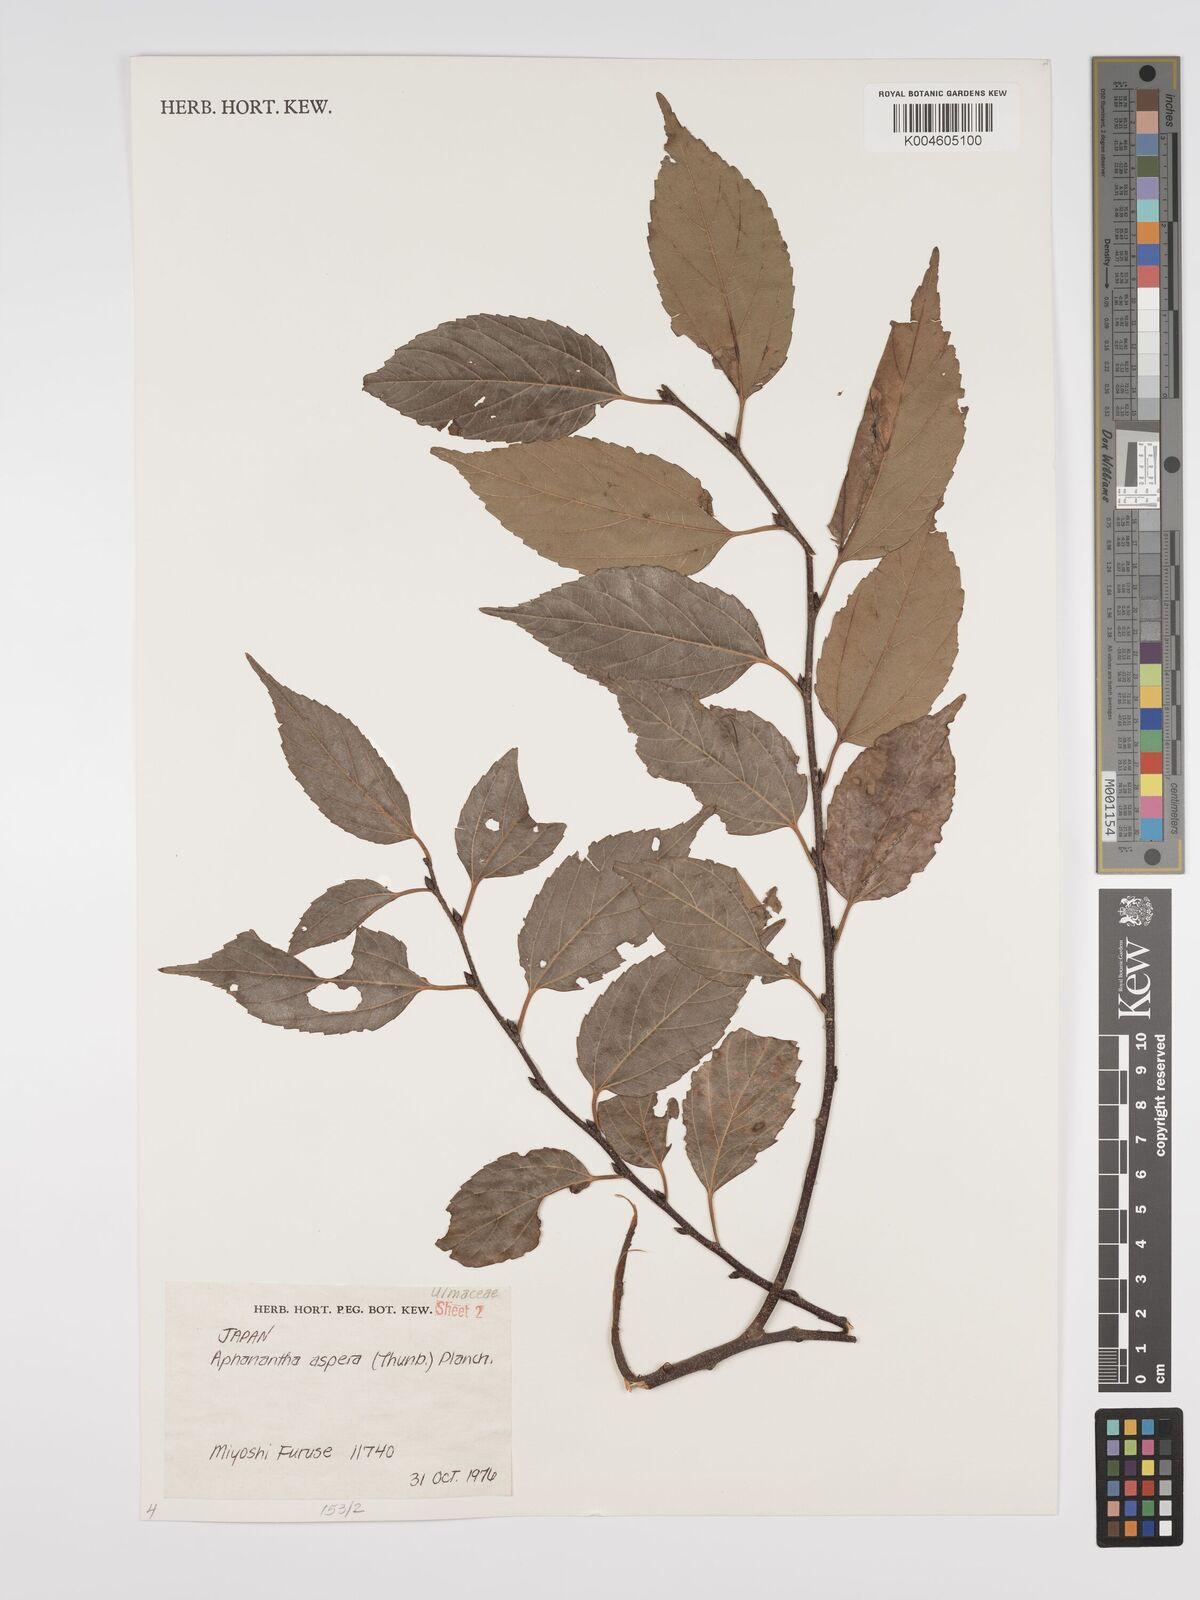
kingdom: Plantae
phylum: Tracheophyta
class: Magnoliopsida
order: Rosales
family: Cannabaceae
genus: Aphananthe
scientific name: Aphananthe aspera
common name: Mukutree
